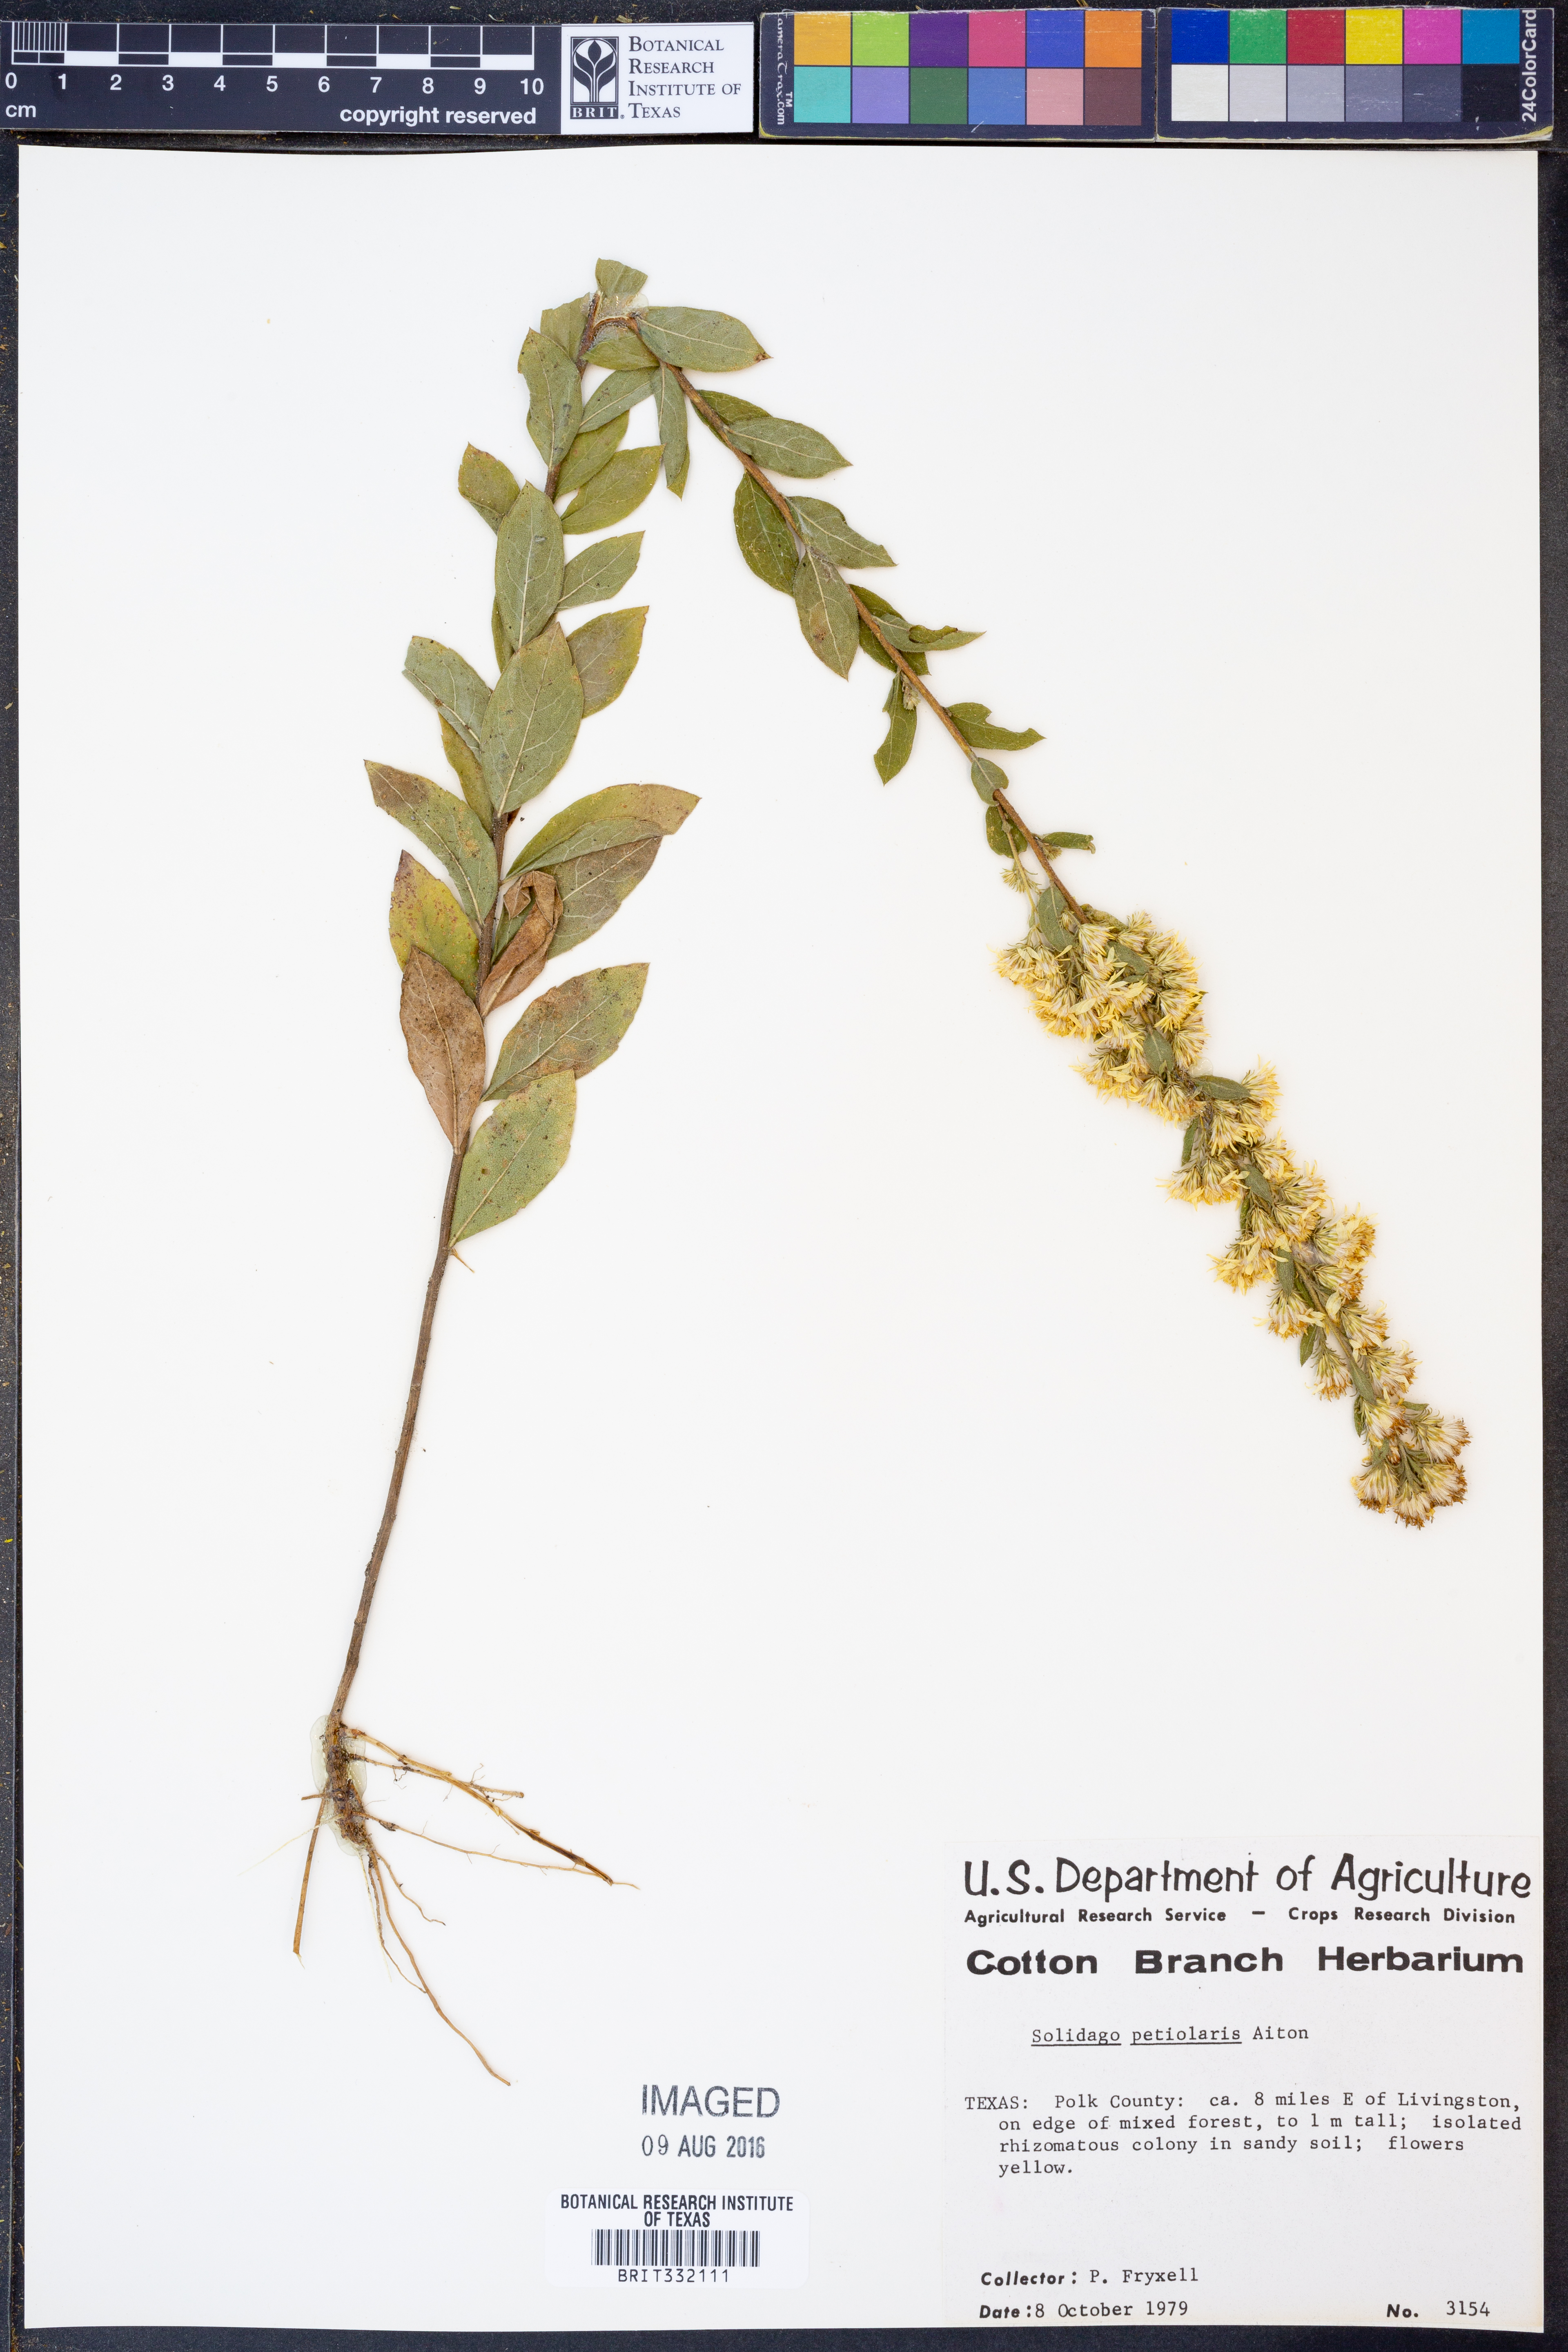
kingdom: Plantae
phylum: Tracheophyta
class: Magnoliopsida
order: Asterales
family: Asteraceae
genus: Solidago
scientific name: Solidago petiolaris
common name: Downy ragged goldenrod
